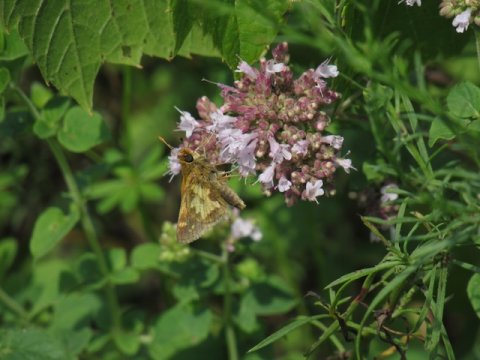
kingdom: Animalia
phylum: Arthropoda
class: Insecta
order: Lepidoptera
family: Hesperiidae
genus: Polites
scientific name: Polites coras
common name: Peck's Skipper
